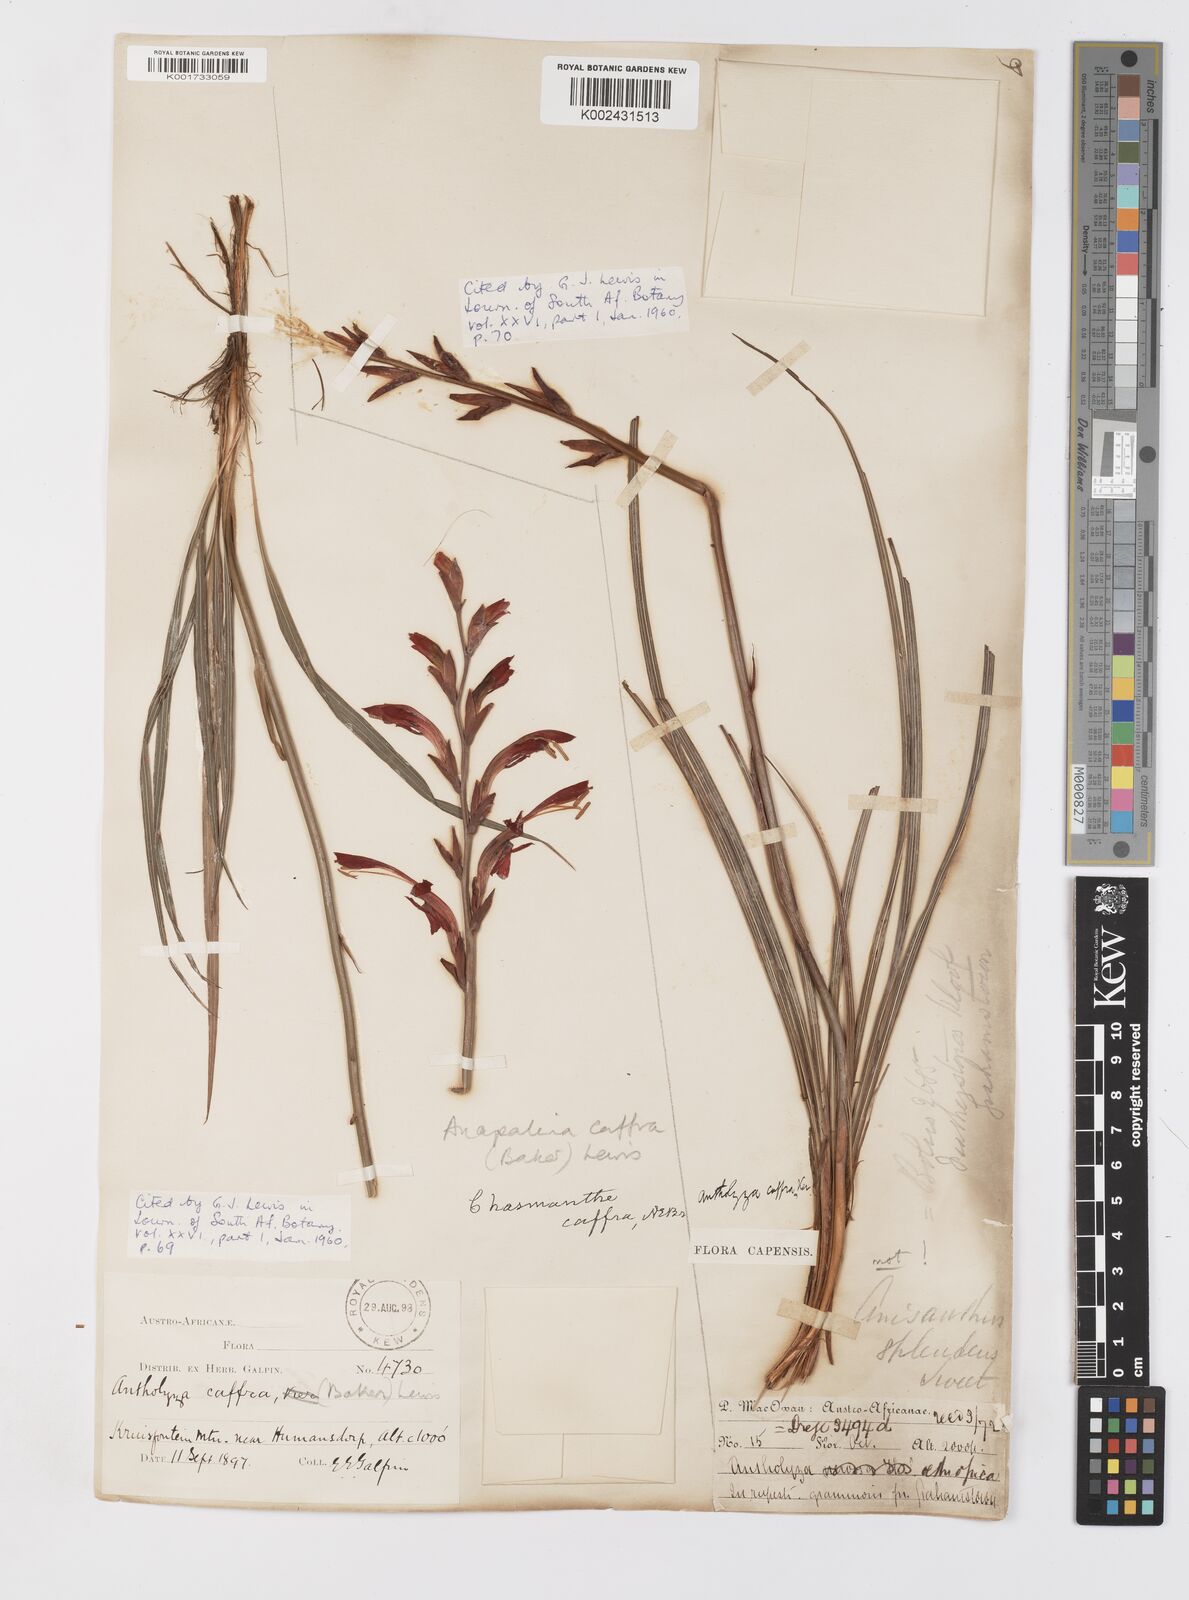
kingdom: Plantae
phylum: Tracheophyta
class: Liliopsida
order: Asparagales
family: Iridaceae
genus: Tritoniopsis
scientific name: Tritoniopsis caffra
